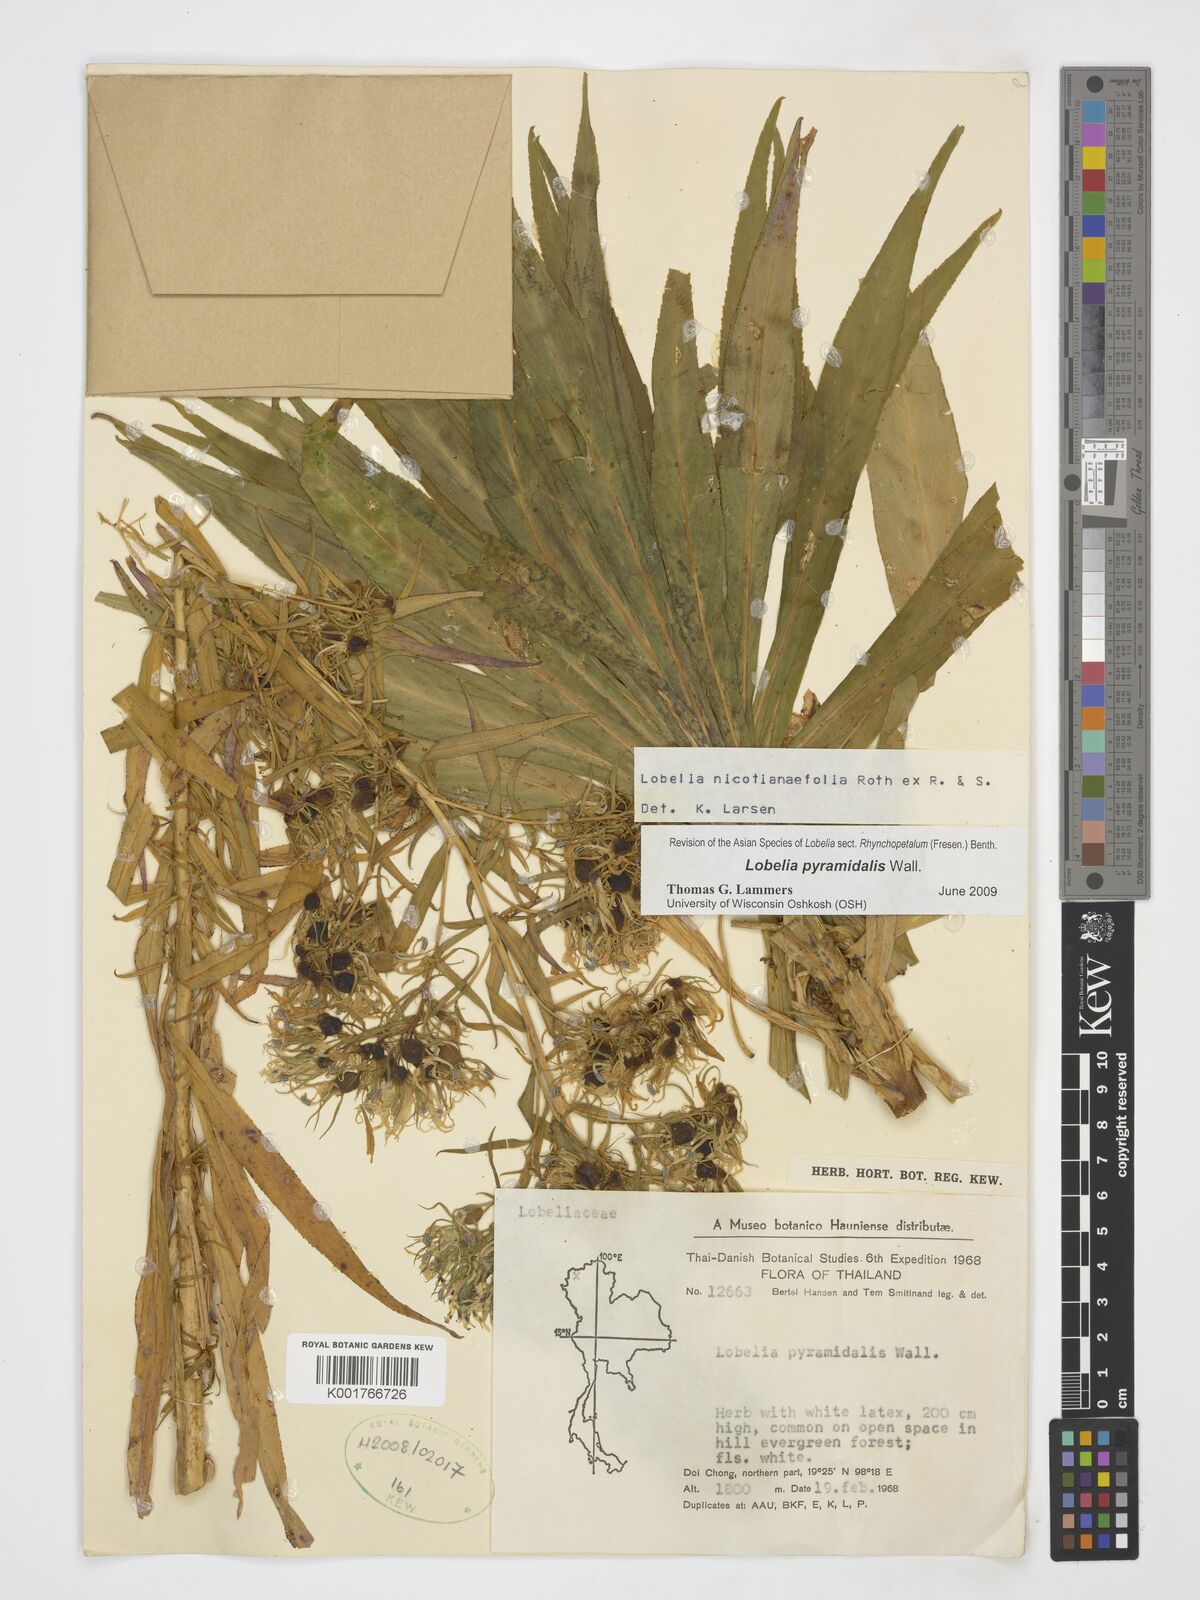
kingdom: Plantae
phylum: Tracheophyta
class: Magnoliopsida
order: Asterales
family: Campanulaceae
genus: Lobelia
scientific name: Lobelia pyramidalis
